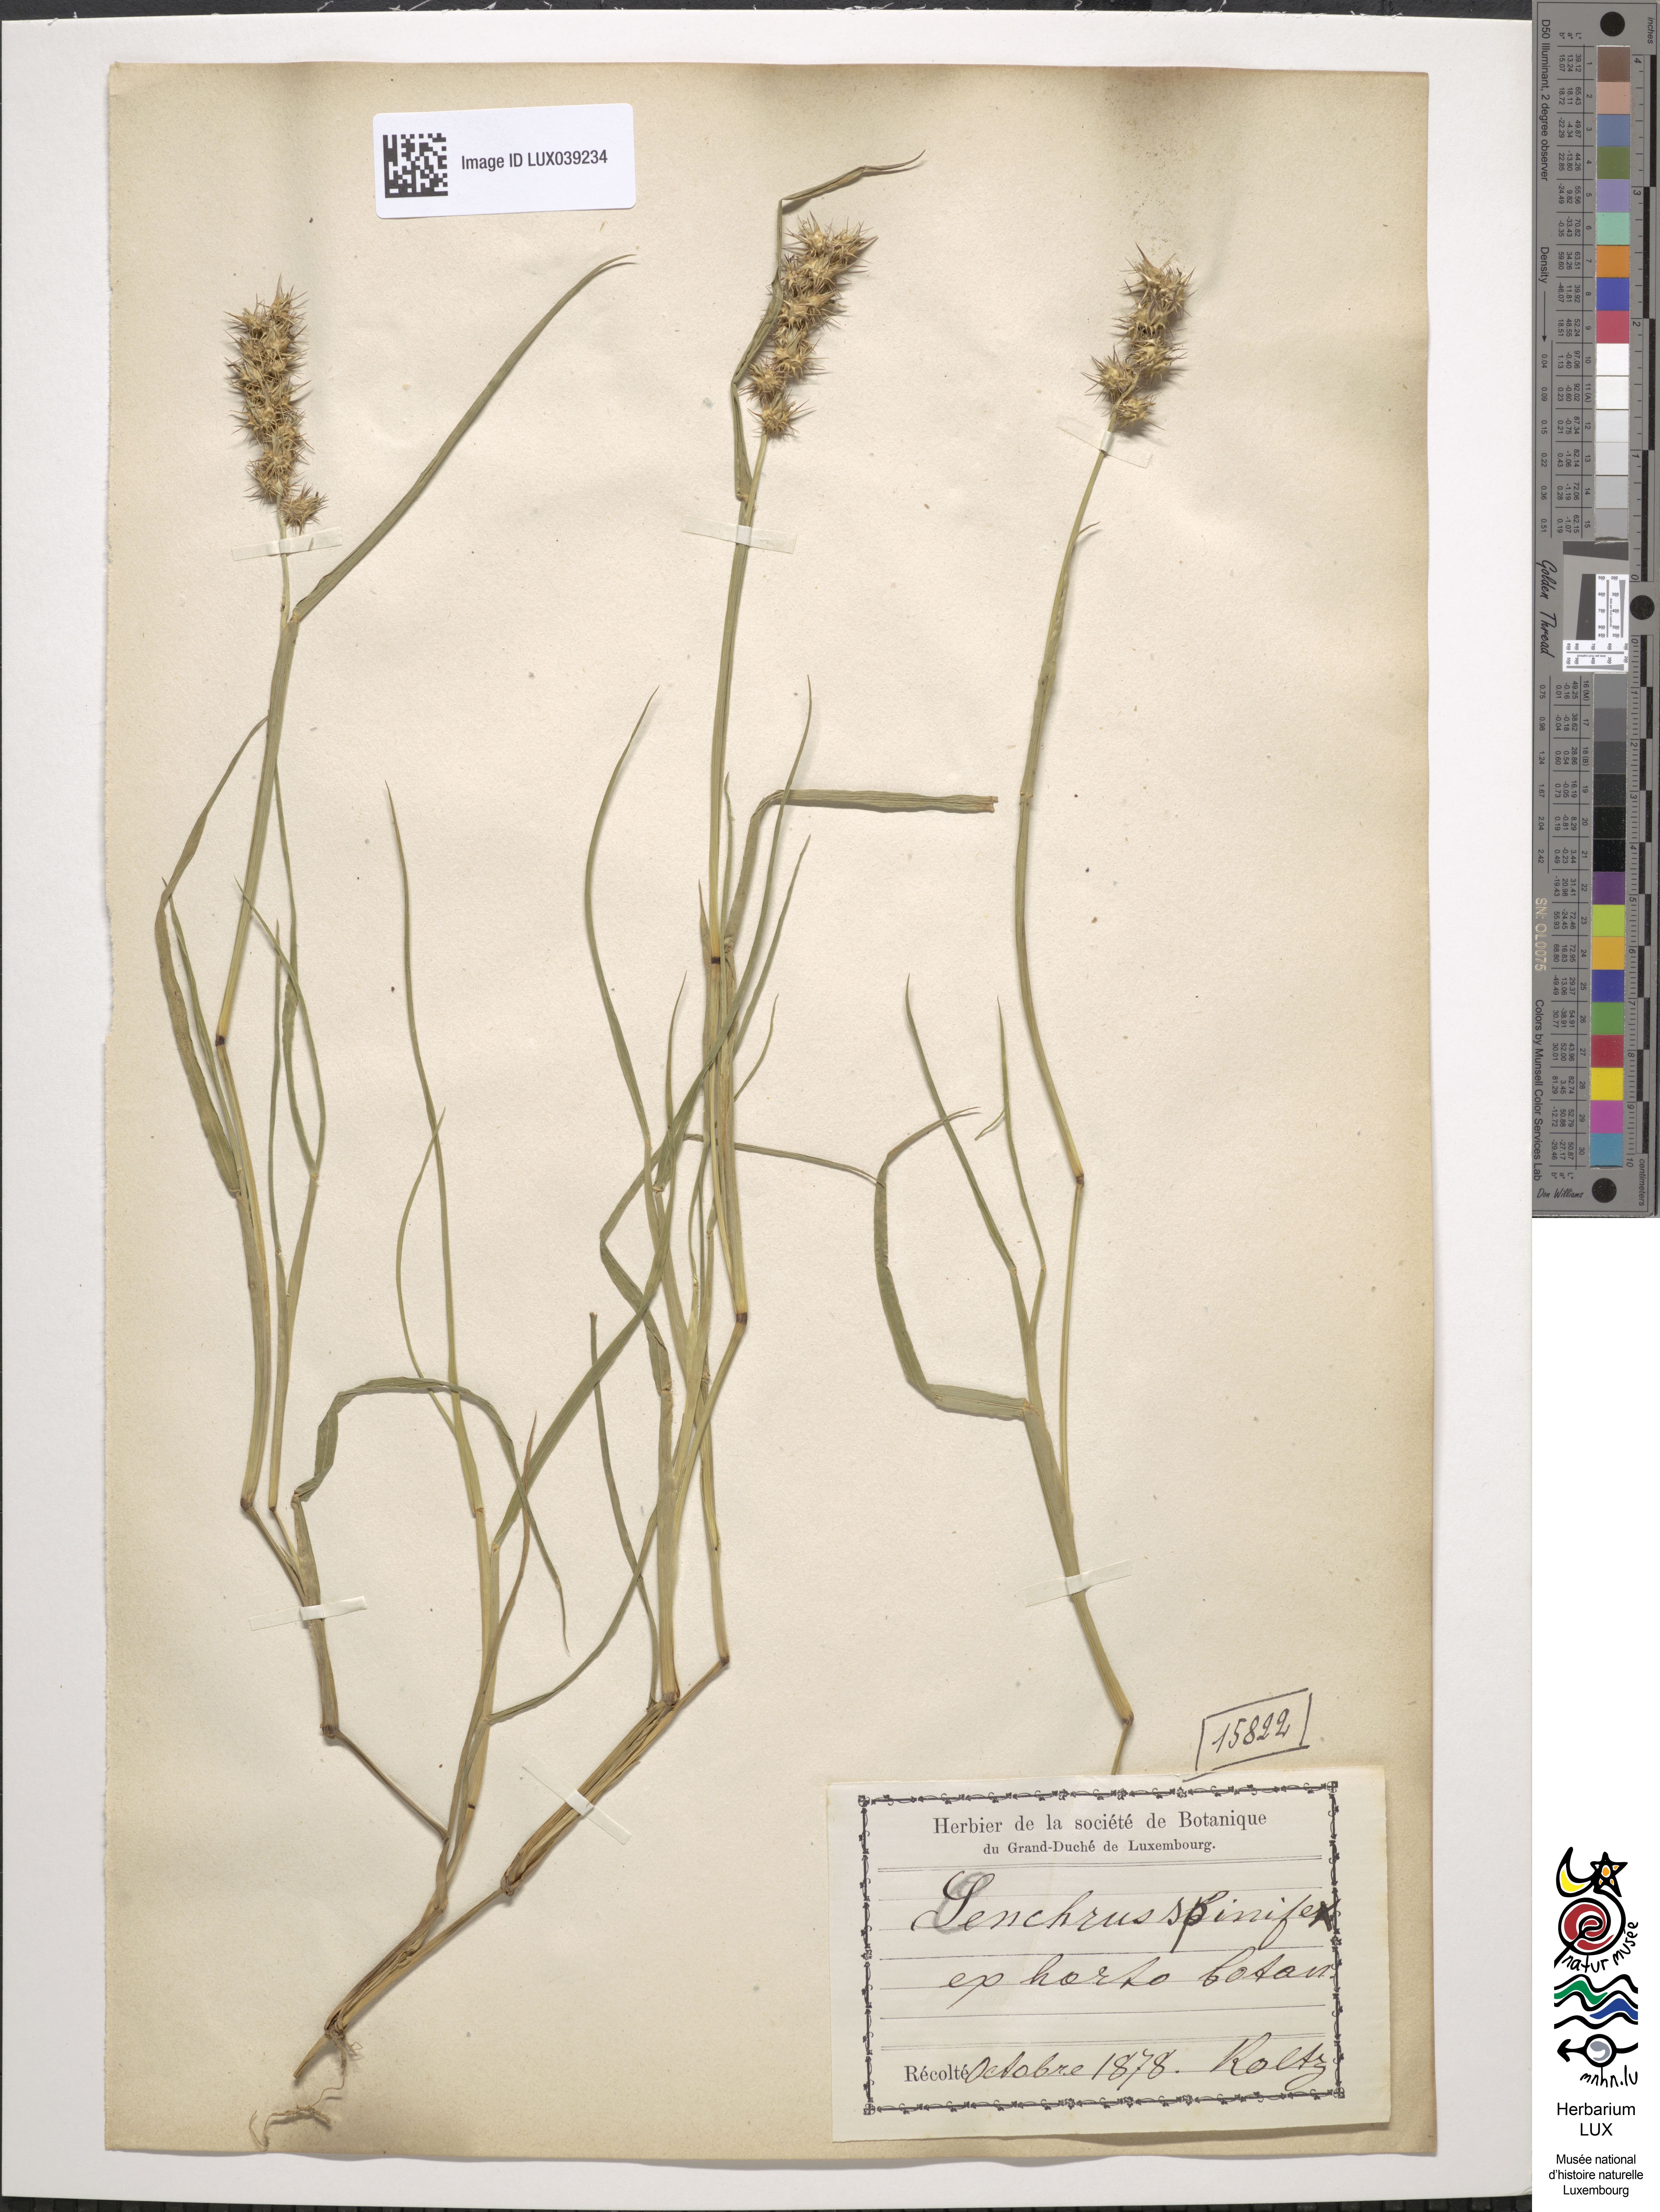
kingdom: Plantae
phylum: Tracheophyta
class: Liliopsida
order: Poales
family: Poaceae
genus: Cenchrus
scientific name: Cenchrus spinifex
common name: Coast sandbur
